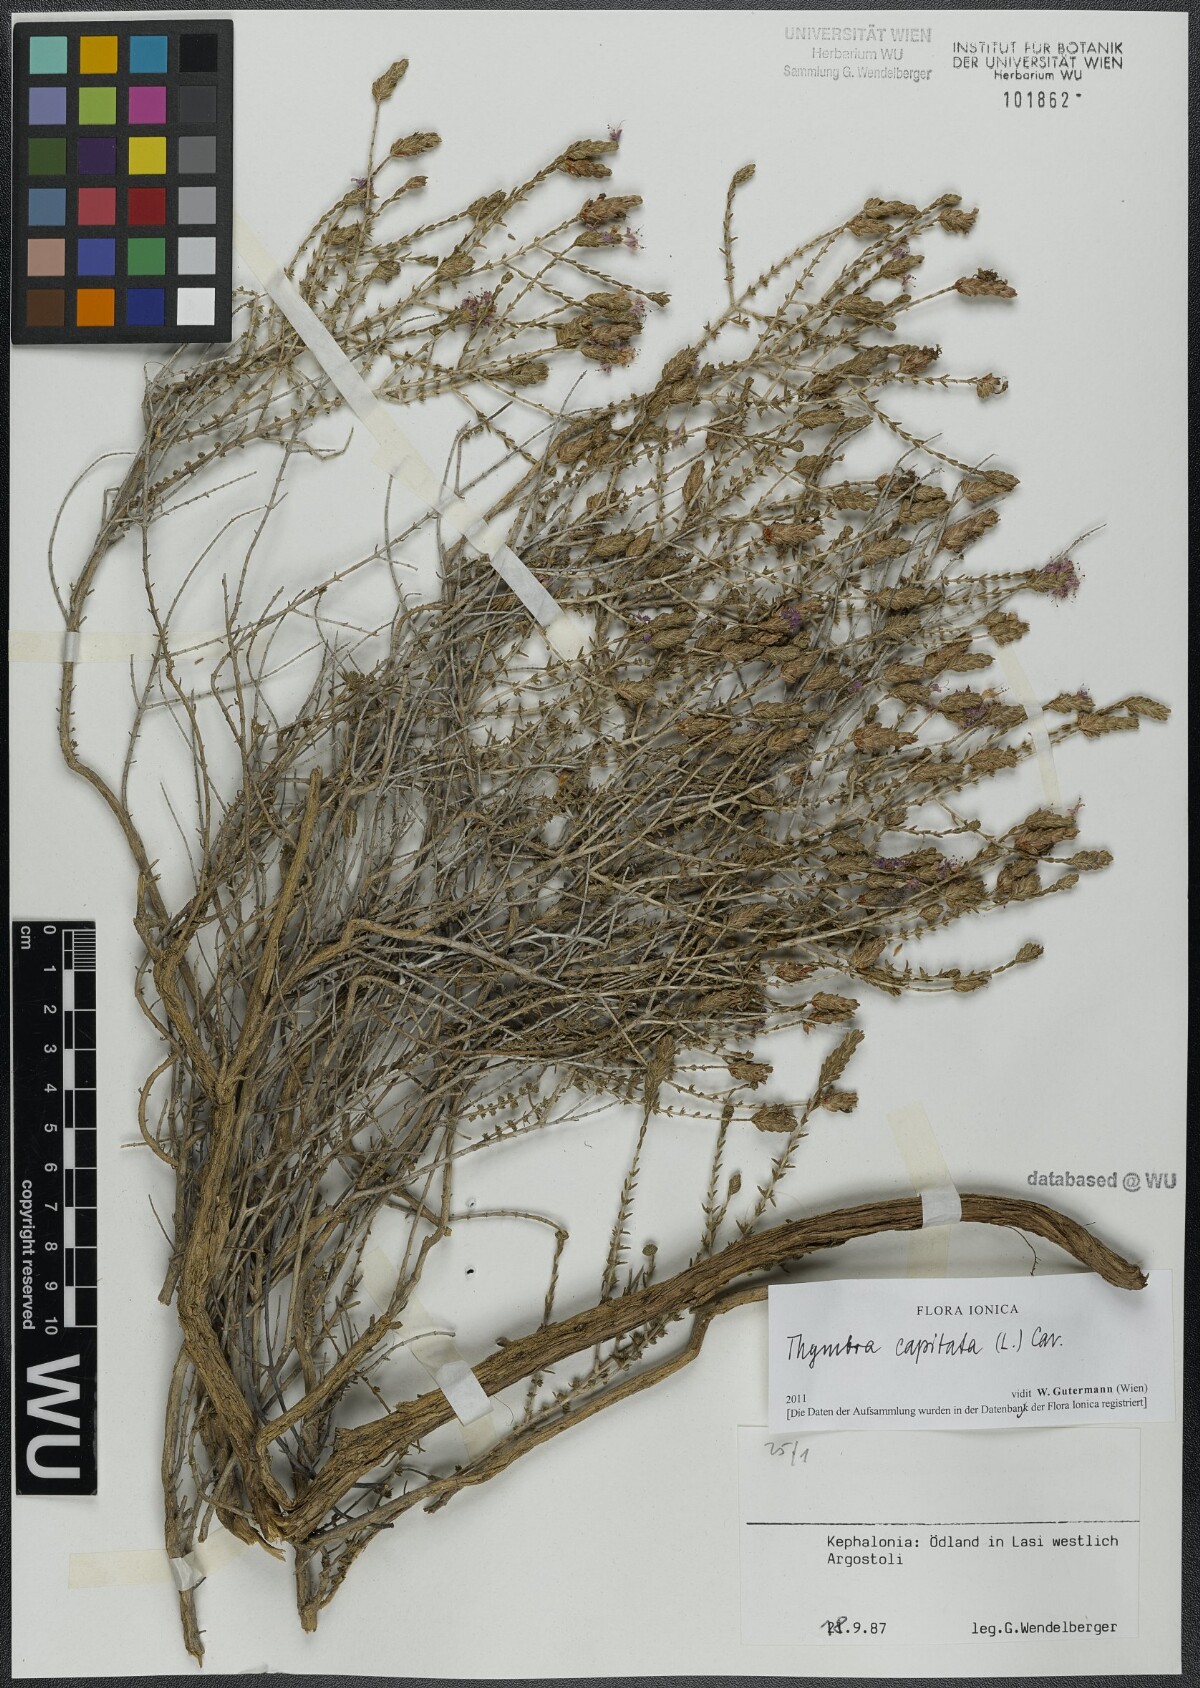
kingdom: Plantae
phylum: Tracheophyta
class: Magnoliopsida
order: Lamiales
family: Lamiaceae
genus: Thymbra
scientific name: Thymbra capitata
